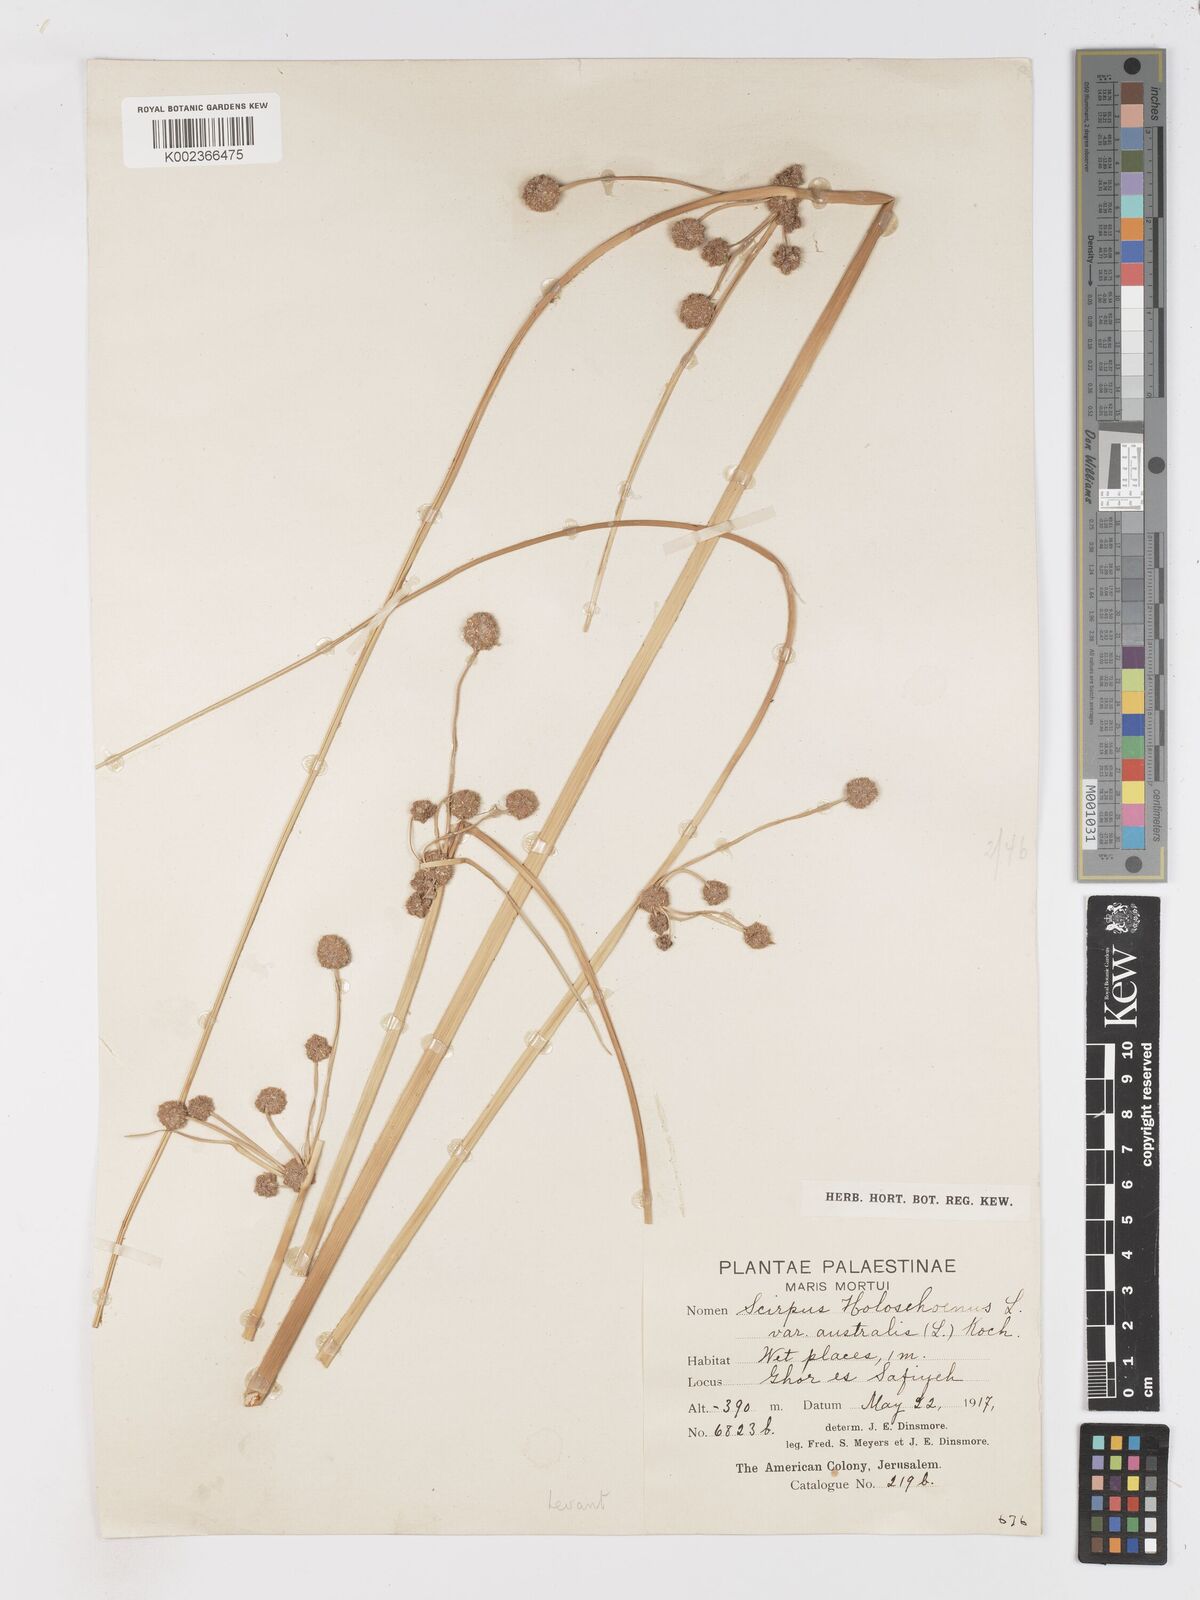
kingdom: Plantae
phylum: Tracheophyta
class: Liliopsida
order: Poales
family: Cyperaceae
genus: Scirpoides
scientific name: Scirpoides holoschoenus
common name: Round-headed club-rush
